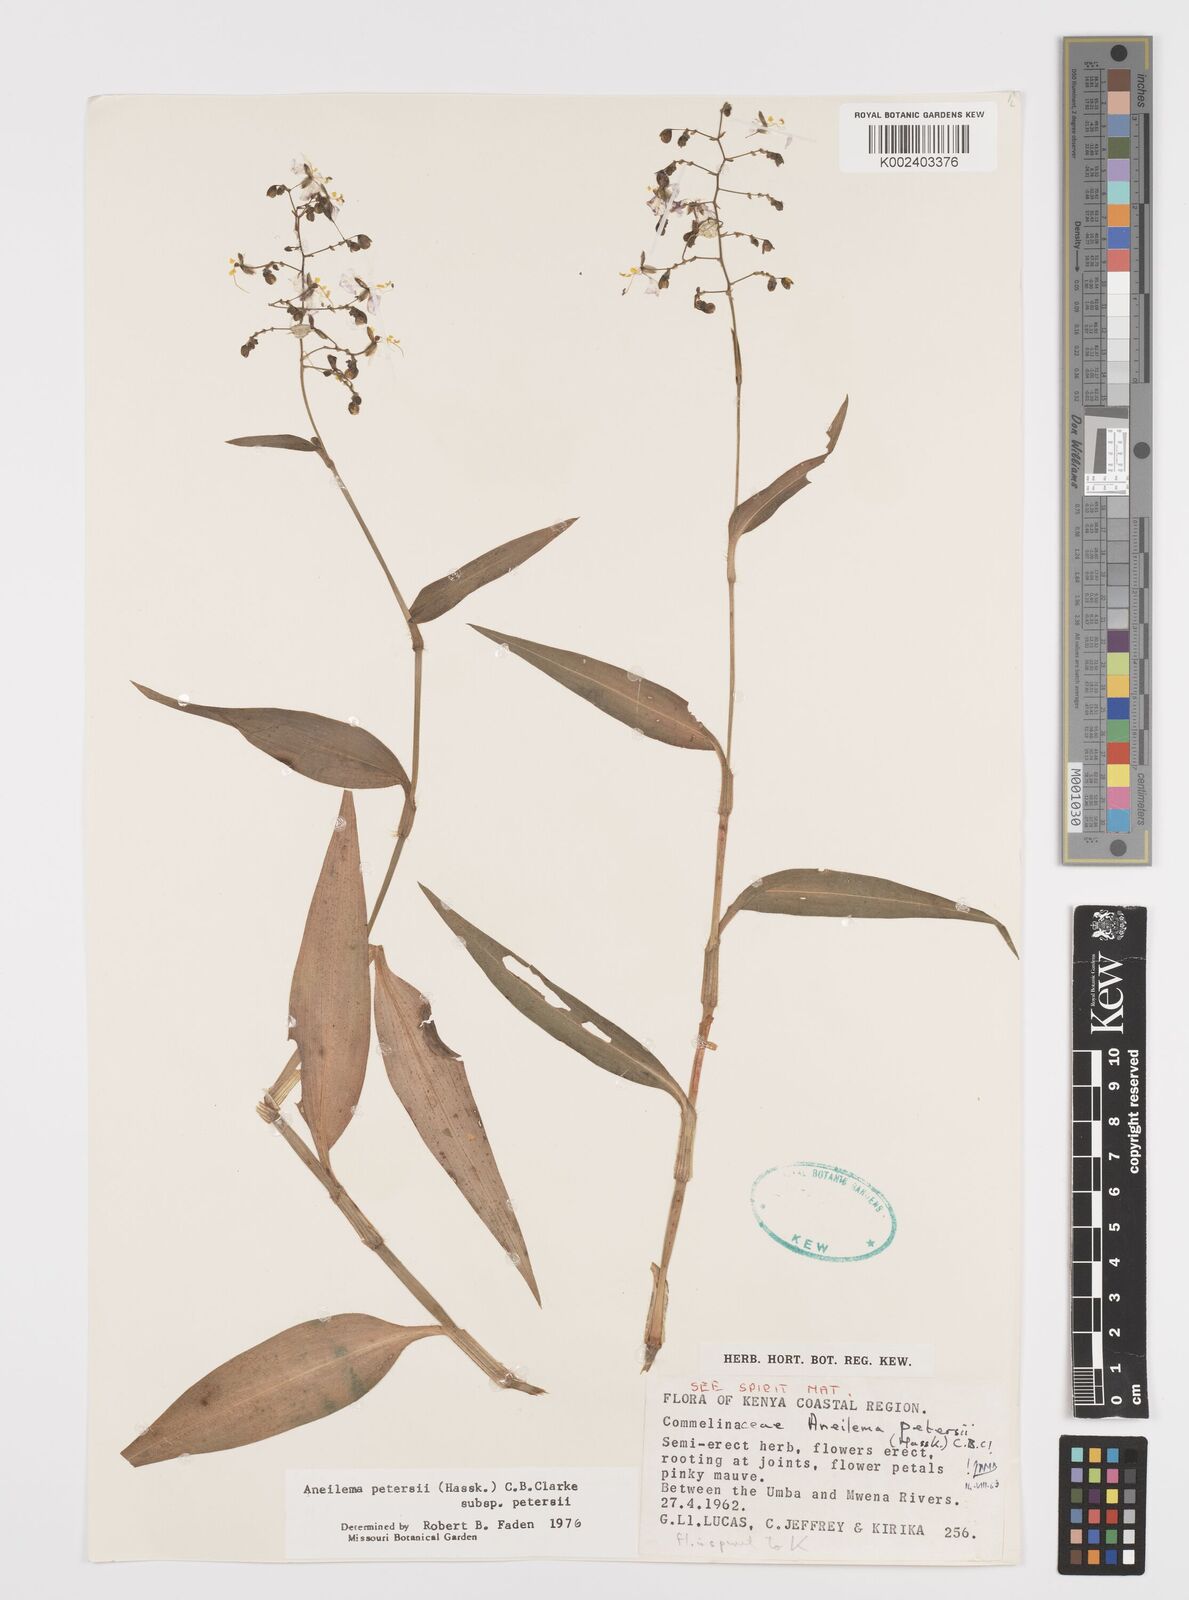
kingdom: Plantae
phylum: Tracheophyta
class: Liliopsida
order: Commelinales
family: Commelinaceae
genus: Aneilema
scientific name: Aneilema petersii
